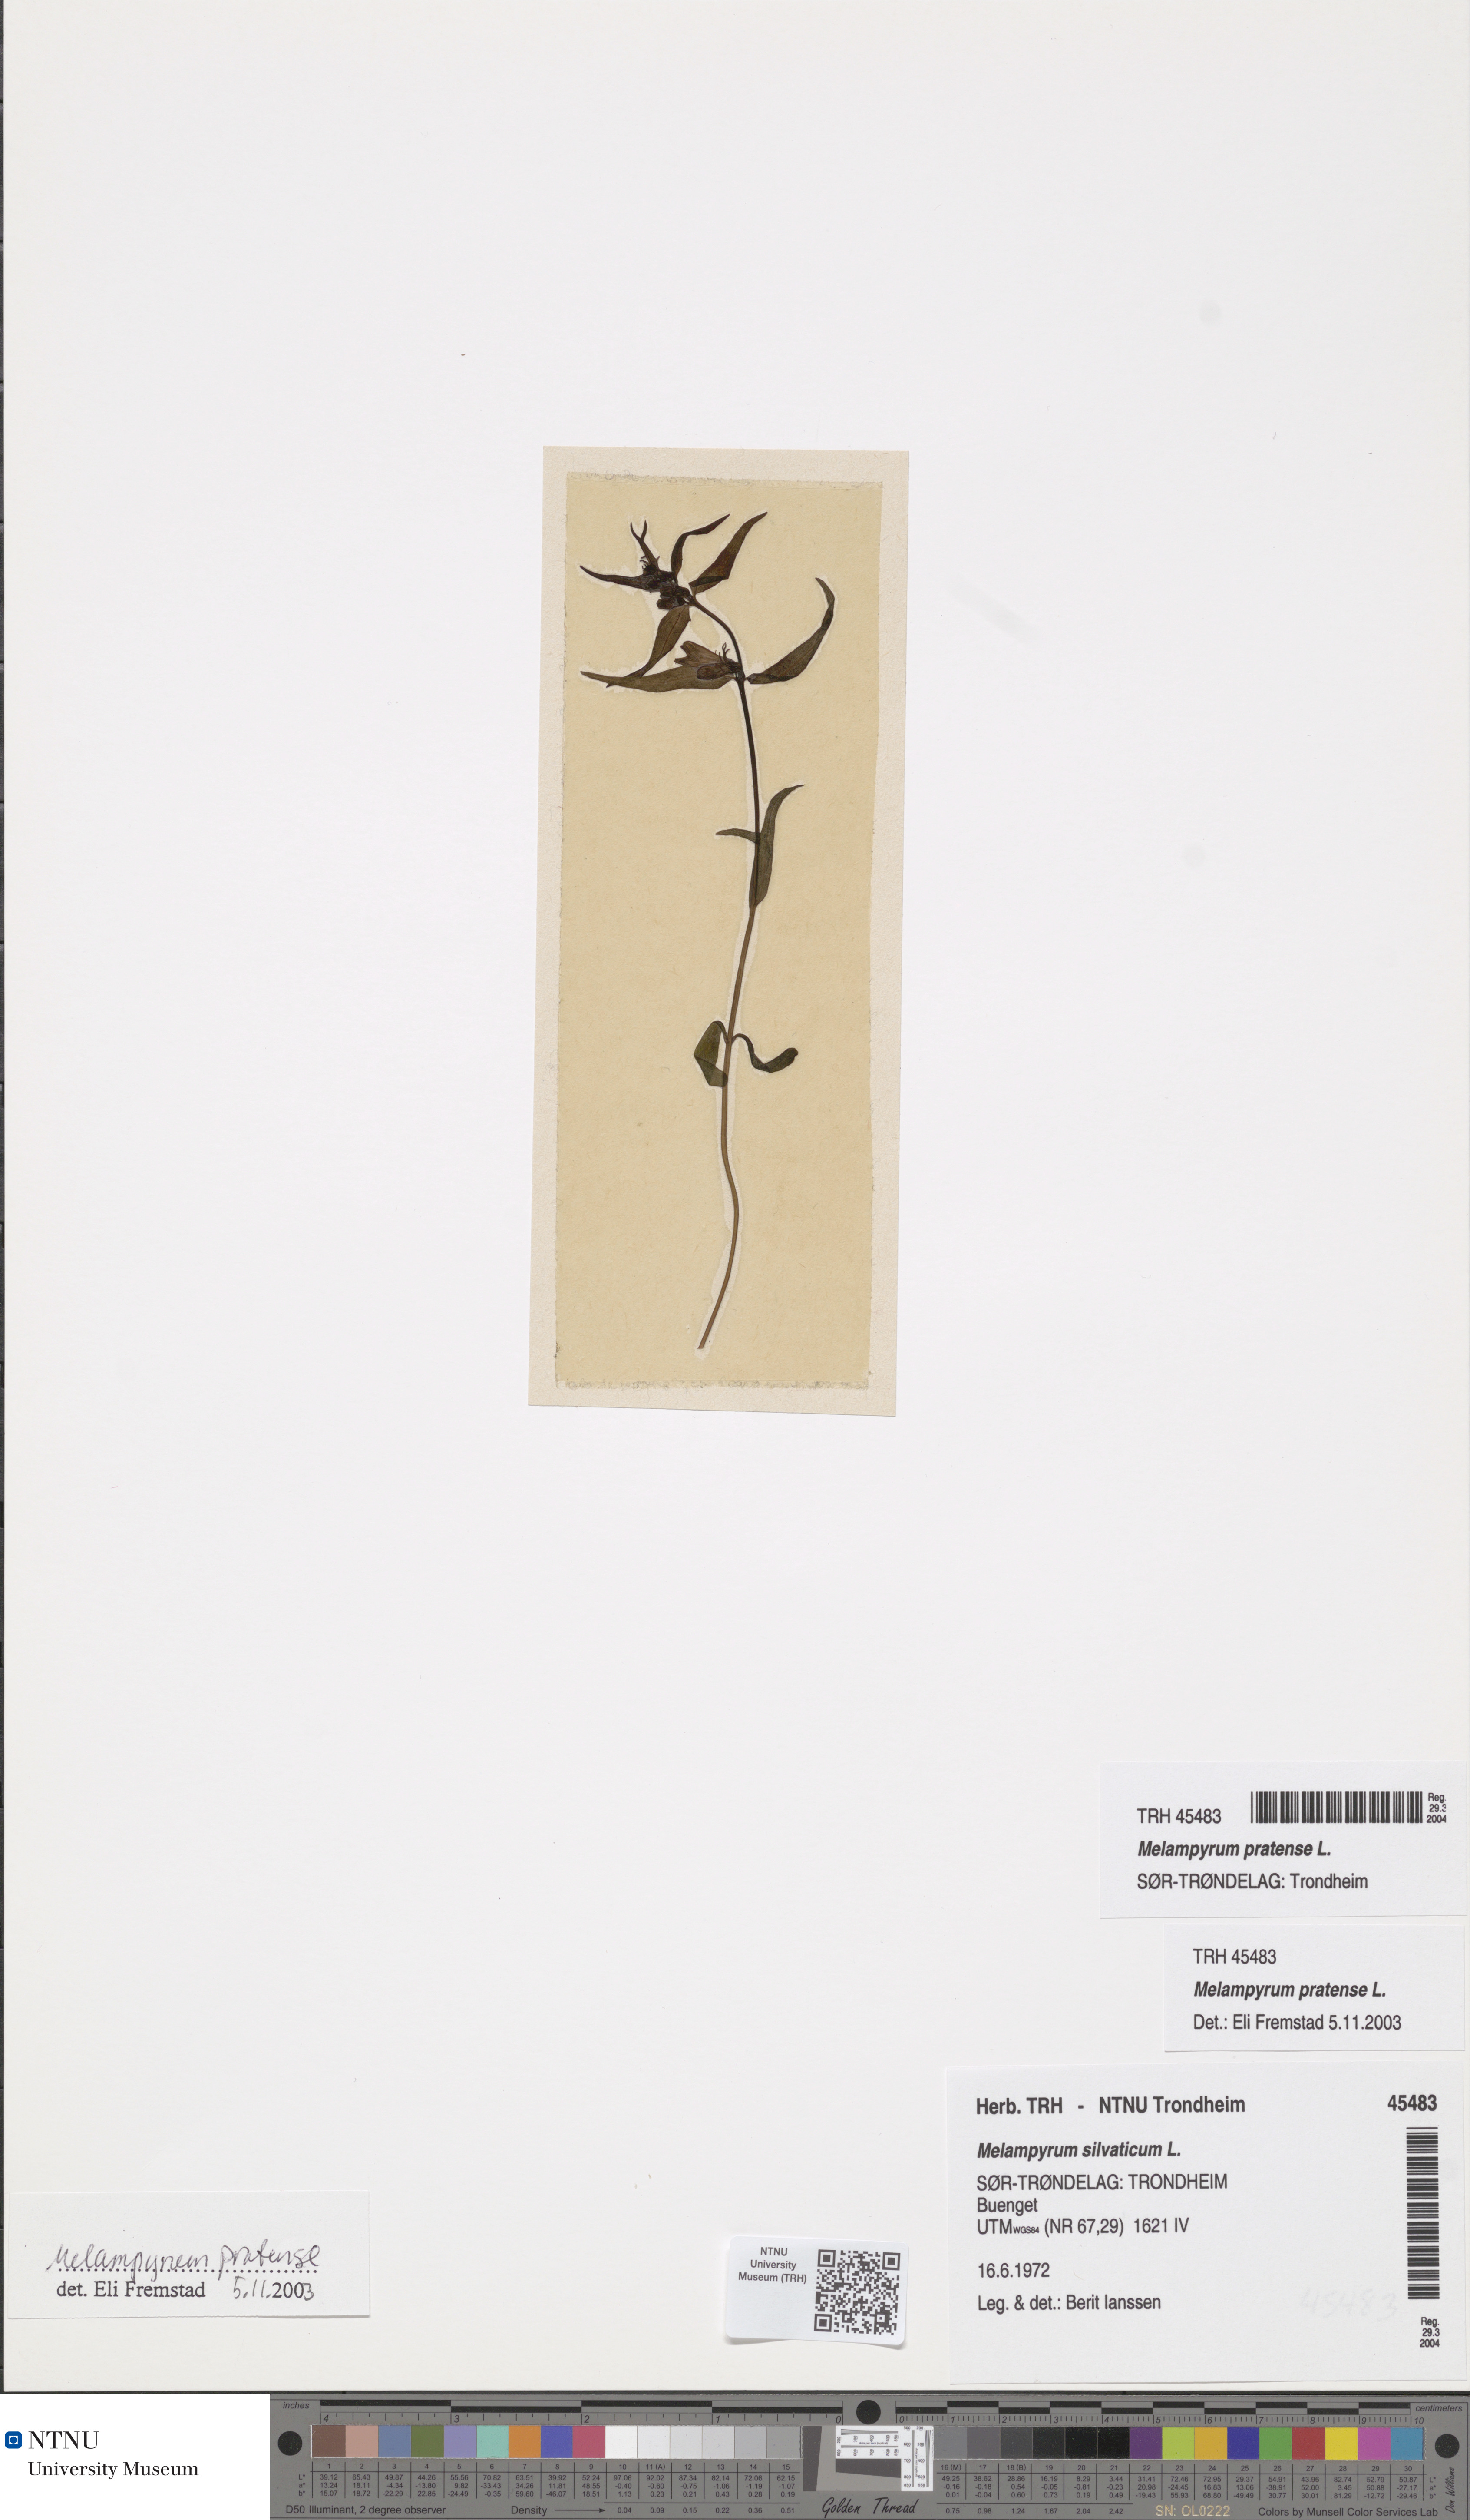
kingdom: Plantae
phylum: Tracheophyta
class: Magnoliopsida
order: Lamiales
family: Orobanchaceae
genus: Melampyrum
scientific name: Melampyrum pratense
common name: Common cow-wheat
